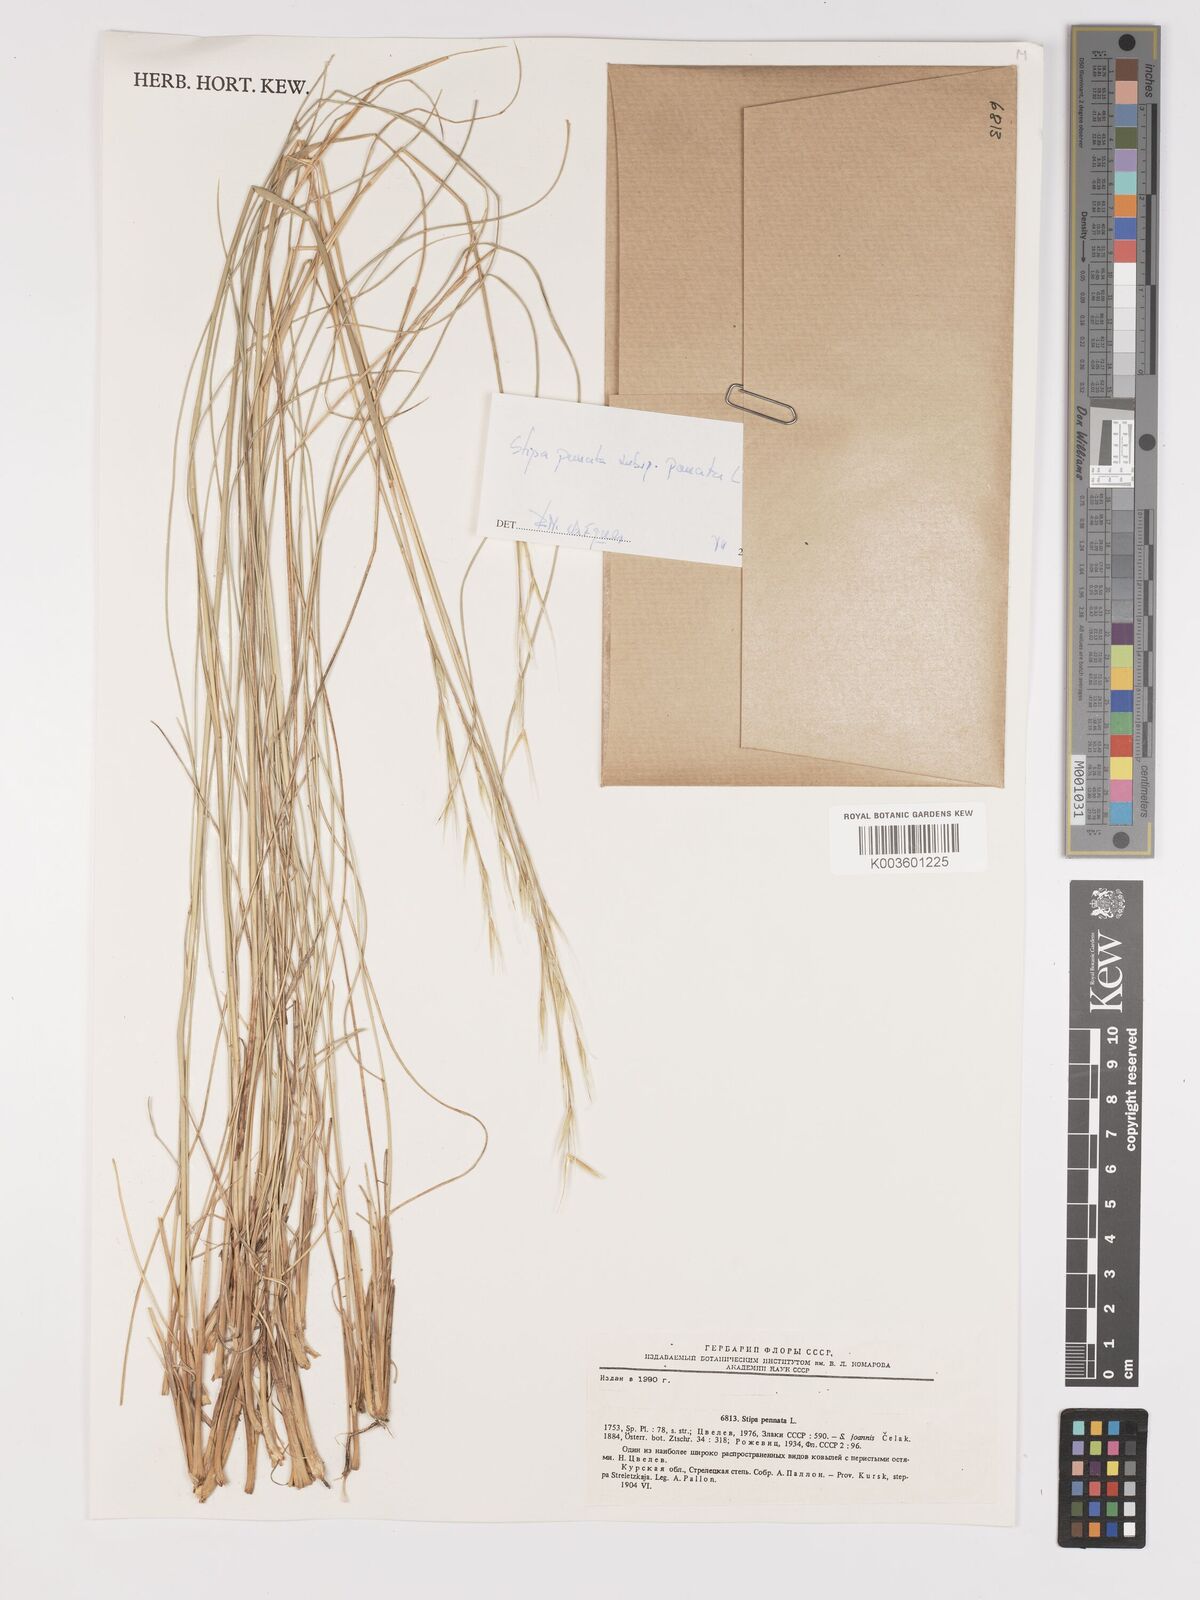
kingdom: Plantae
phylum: Tracheophyta
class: Liliopsida
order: Poales
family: Poaceae
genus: Stipa
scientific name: Stipa pennata
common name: European feather grass
